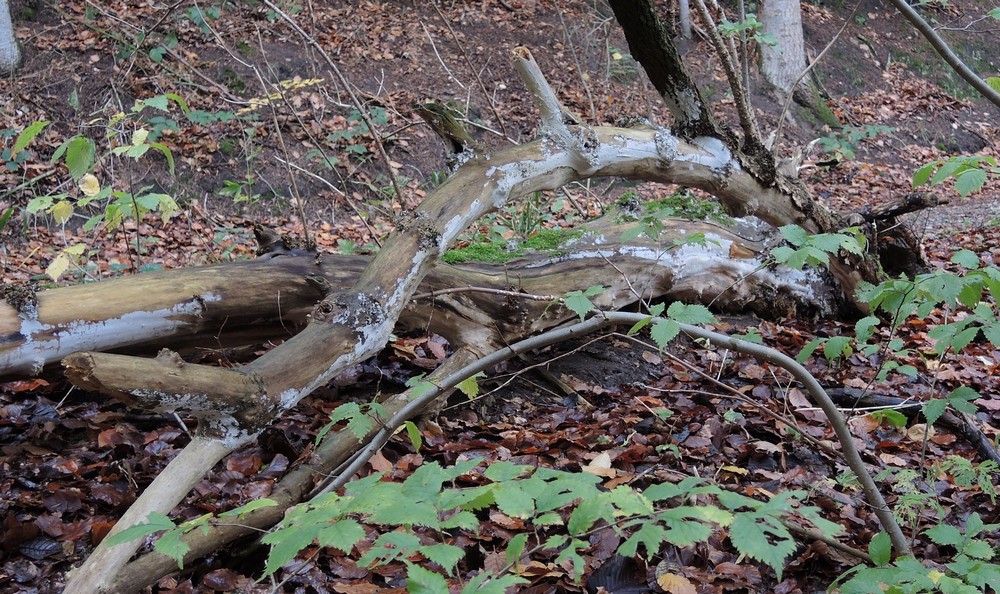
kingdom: Fungi
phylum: Basidiomycota
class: Agaricomycetes
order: Corticiales
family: Corticiaceae
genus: Lyomyces
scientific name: Lyomyces sambuci
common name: almindelig hyldehinde
